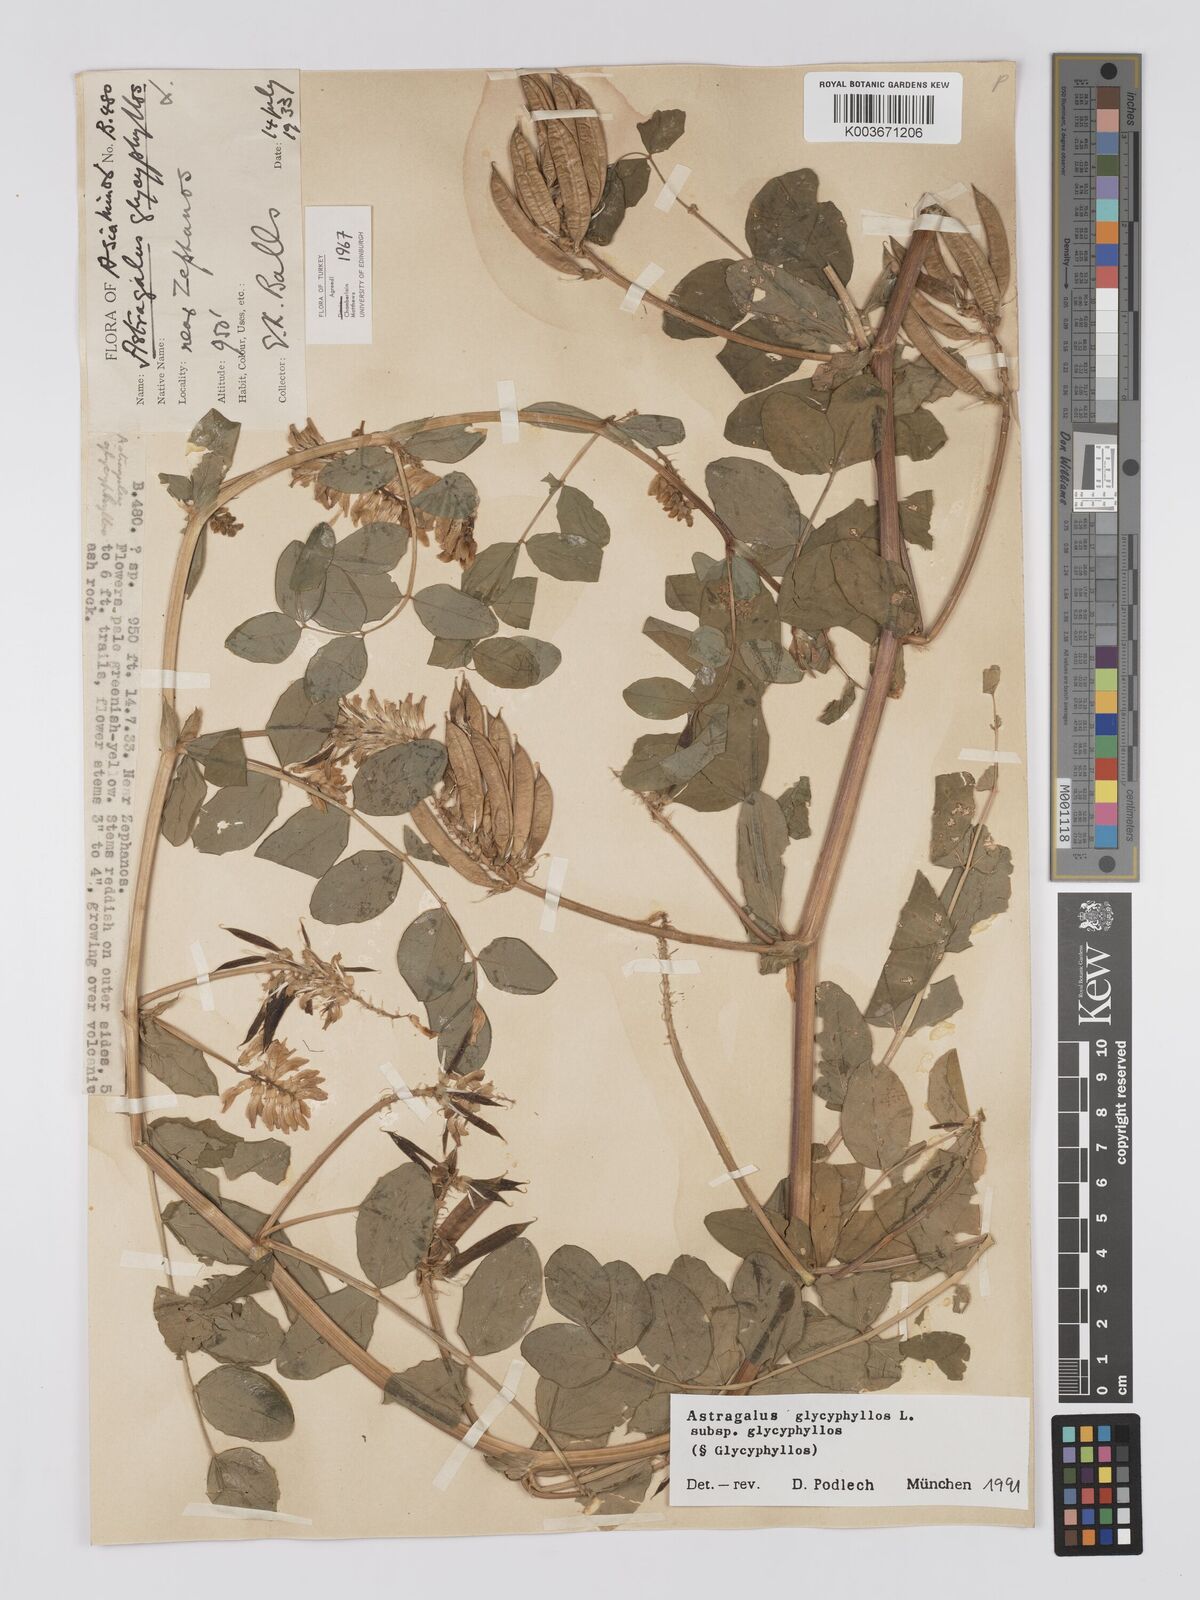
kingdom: Plantae
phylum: Tracheophyta
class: Magnoliopsida
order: Fabales
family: Fabaceae
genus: Astragalus
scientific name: Astragalus glycyphyllos
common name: Wild liquorice
